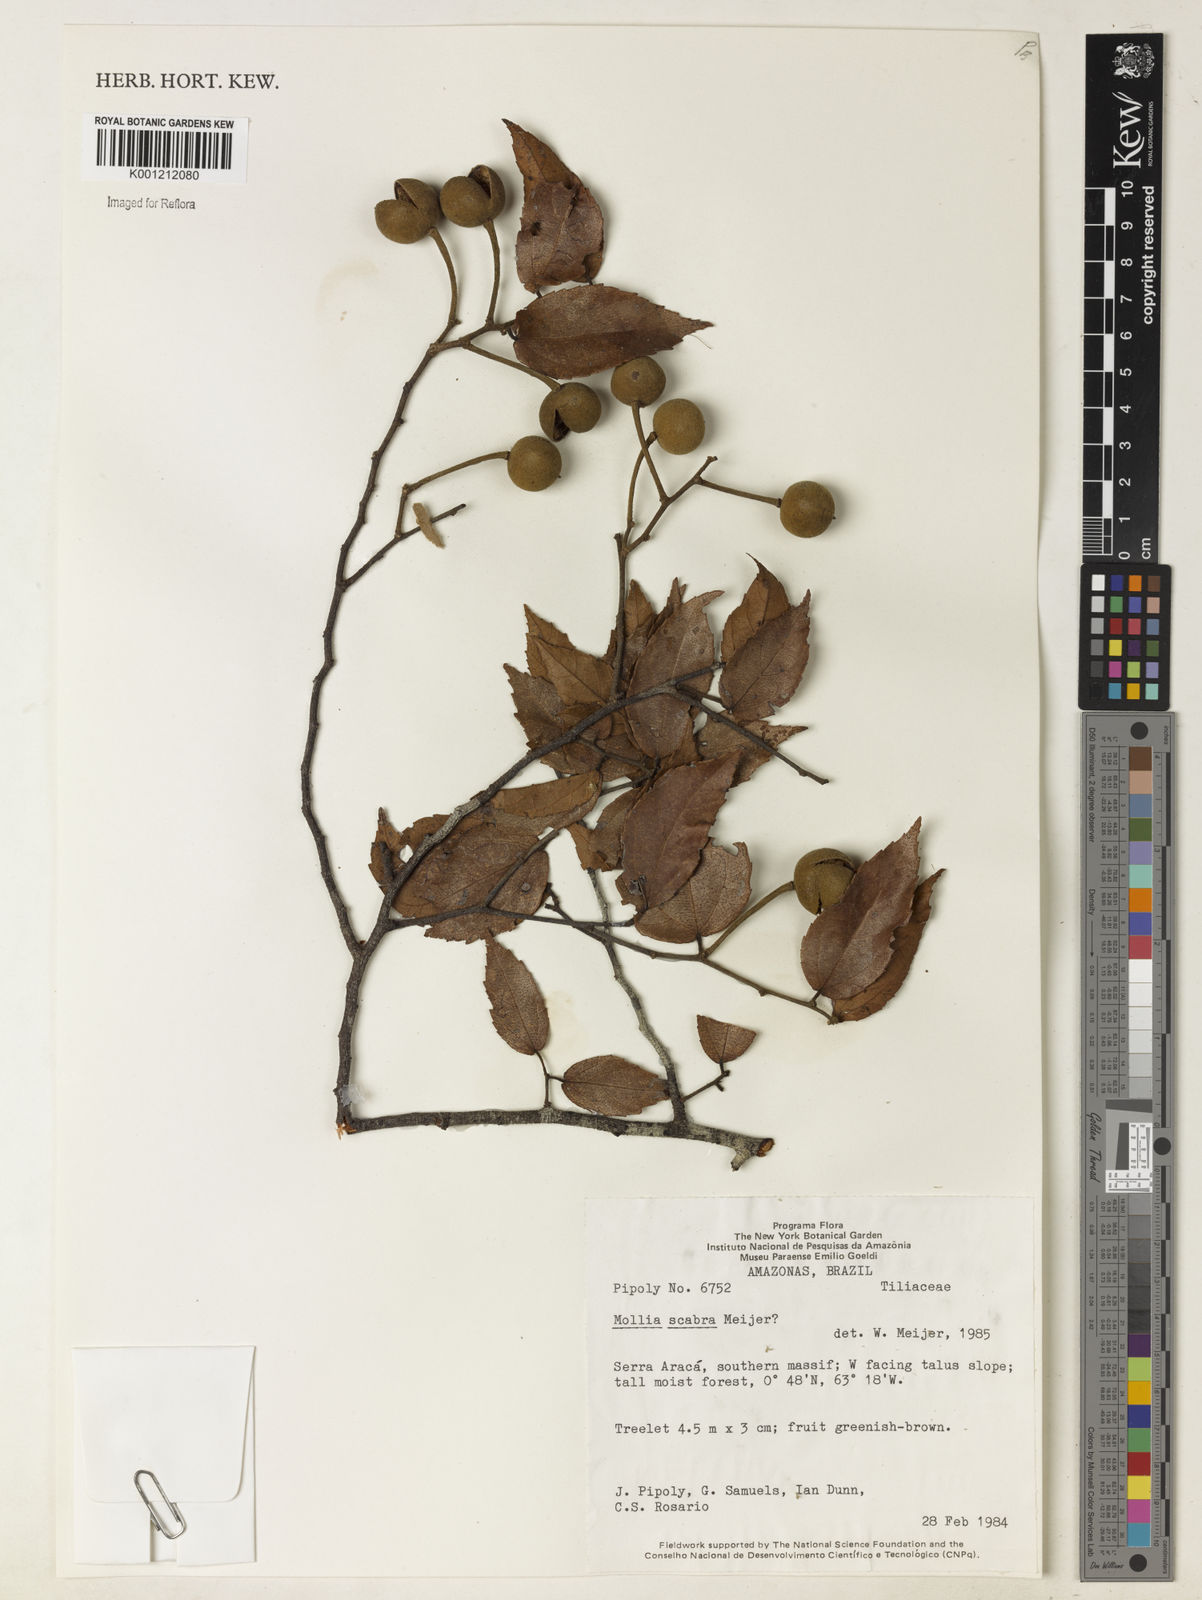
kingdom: Plantae
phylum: Tracheophyta
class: Magnoliopsida
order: Malvales
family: Malvaceae
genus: Mollia
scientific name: Mollia ulei
